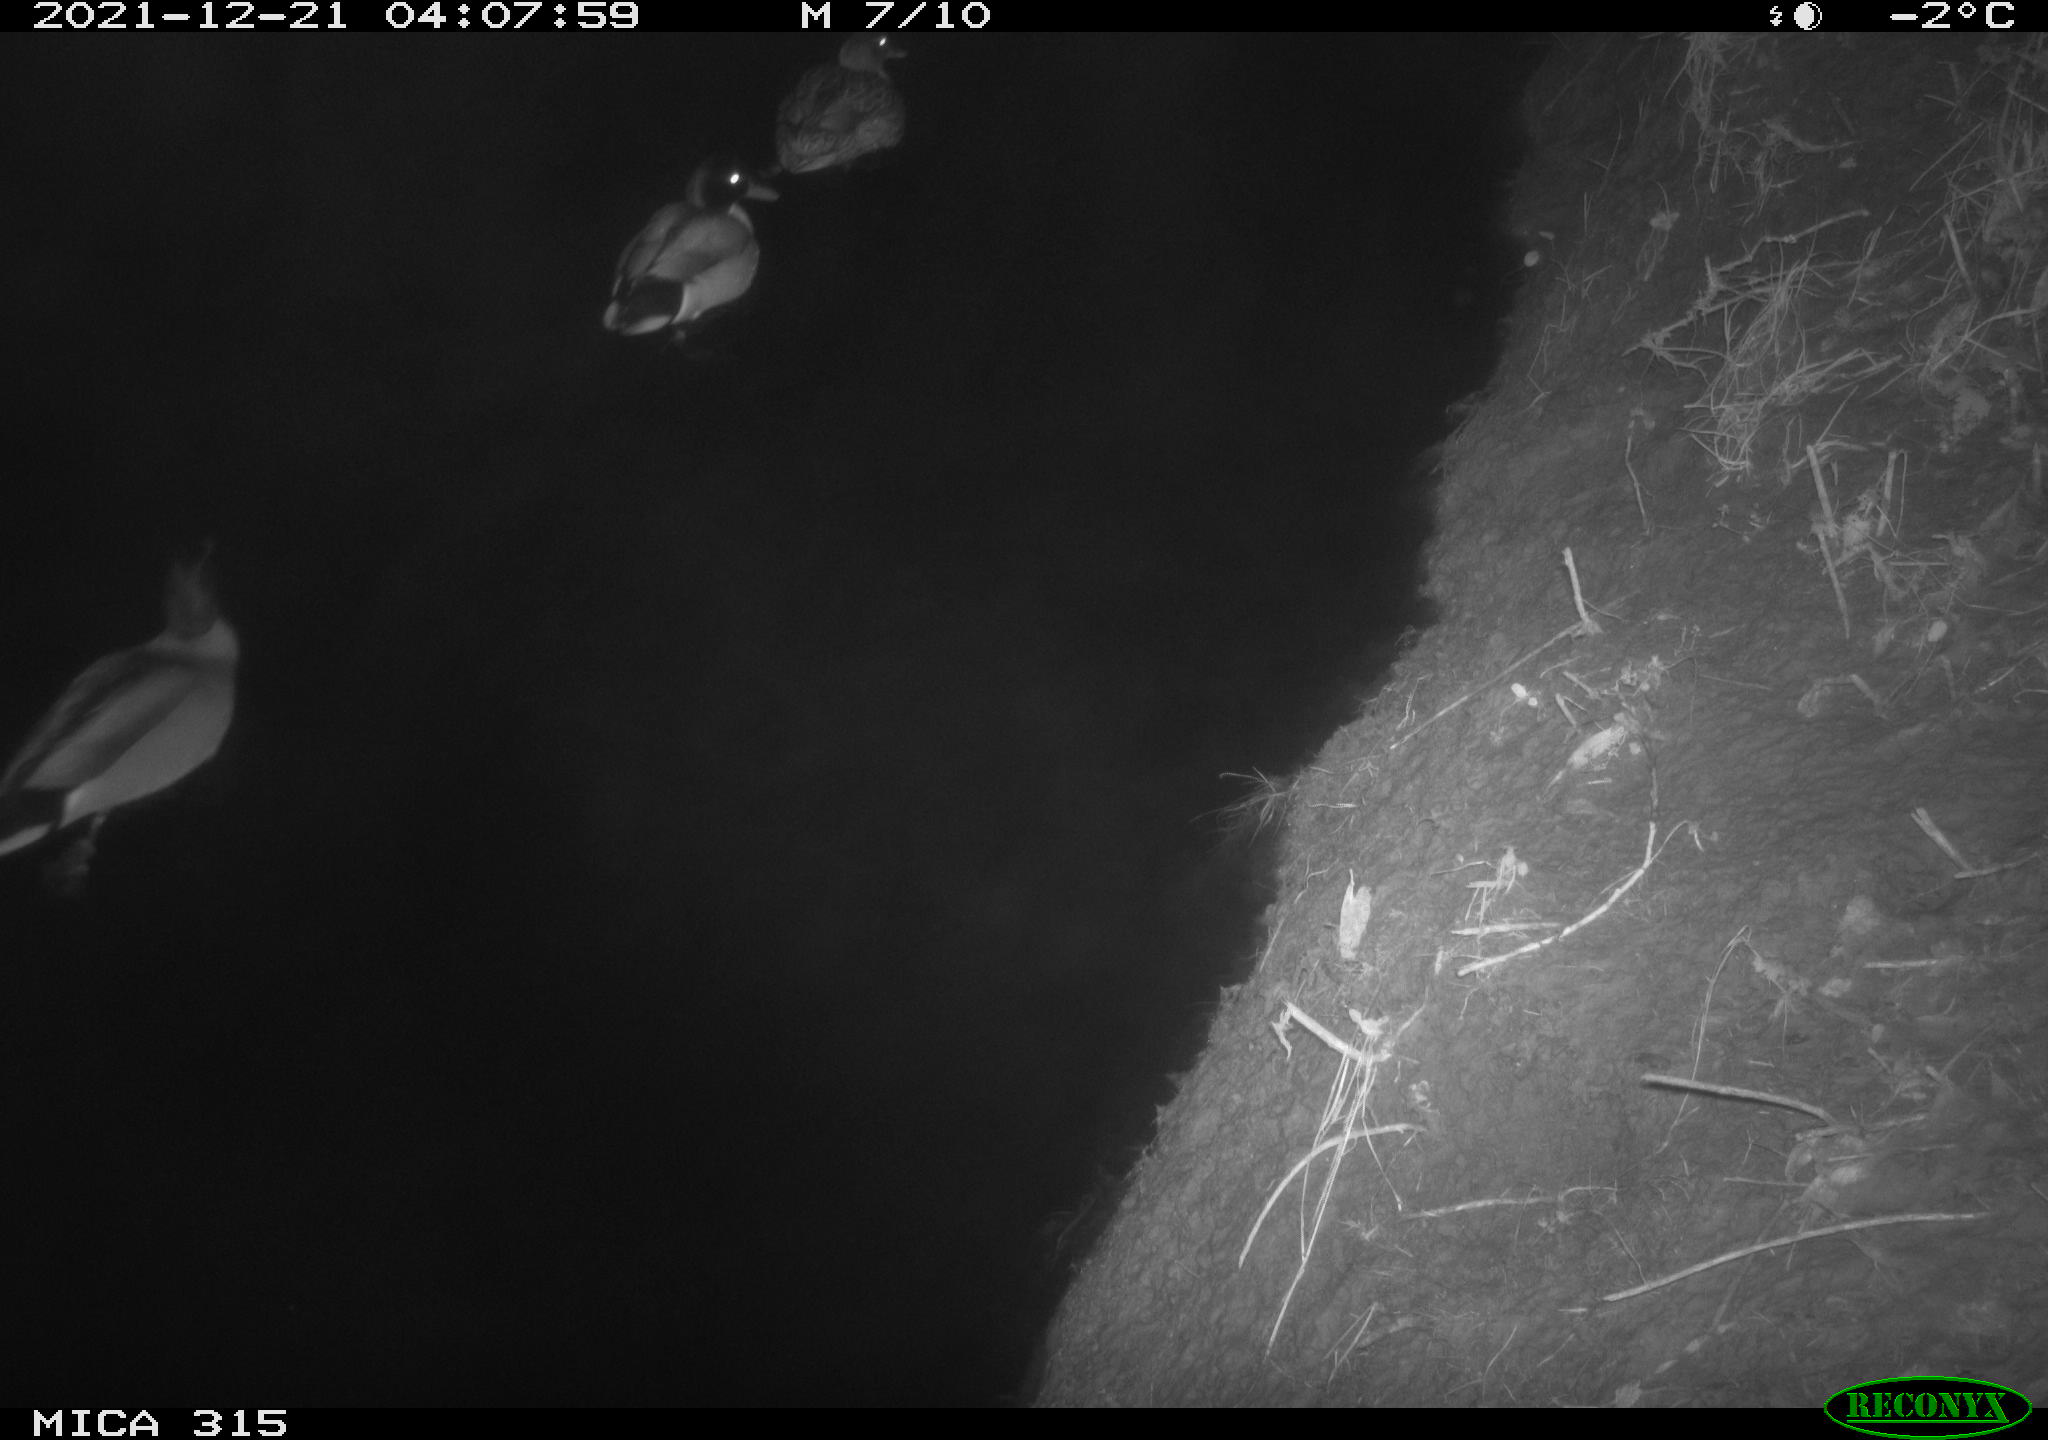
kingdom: Animalia
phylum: Chordata
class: Aves
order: Anseriformes
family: Anatidae
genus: Anas
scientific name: Anas
